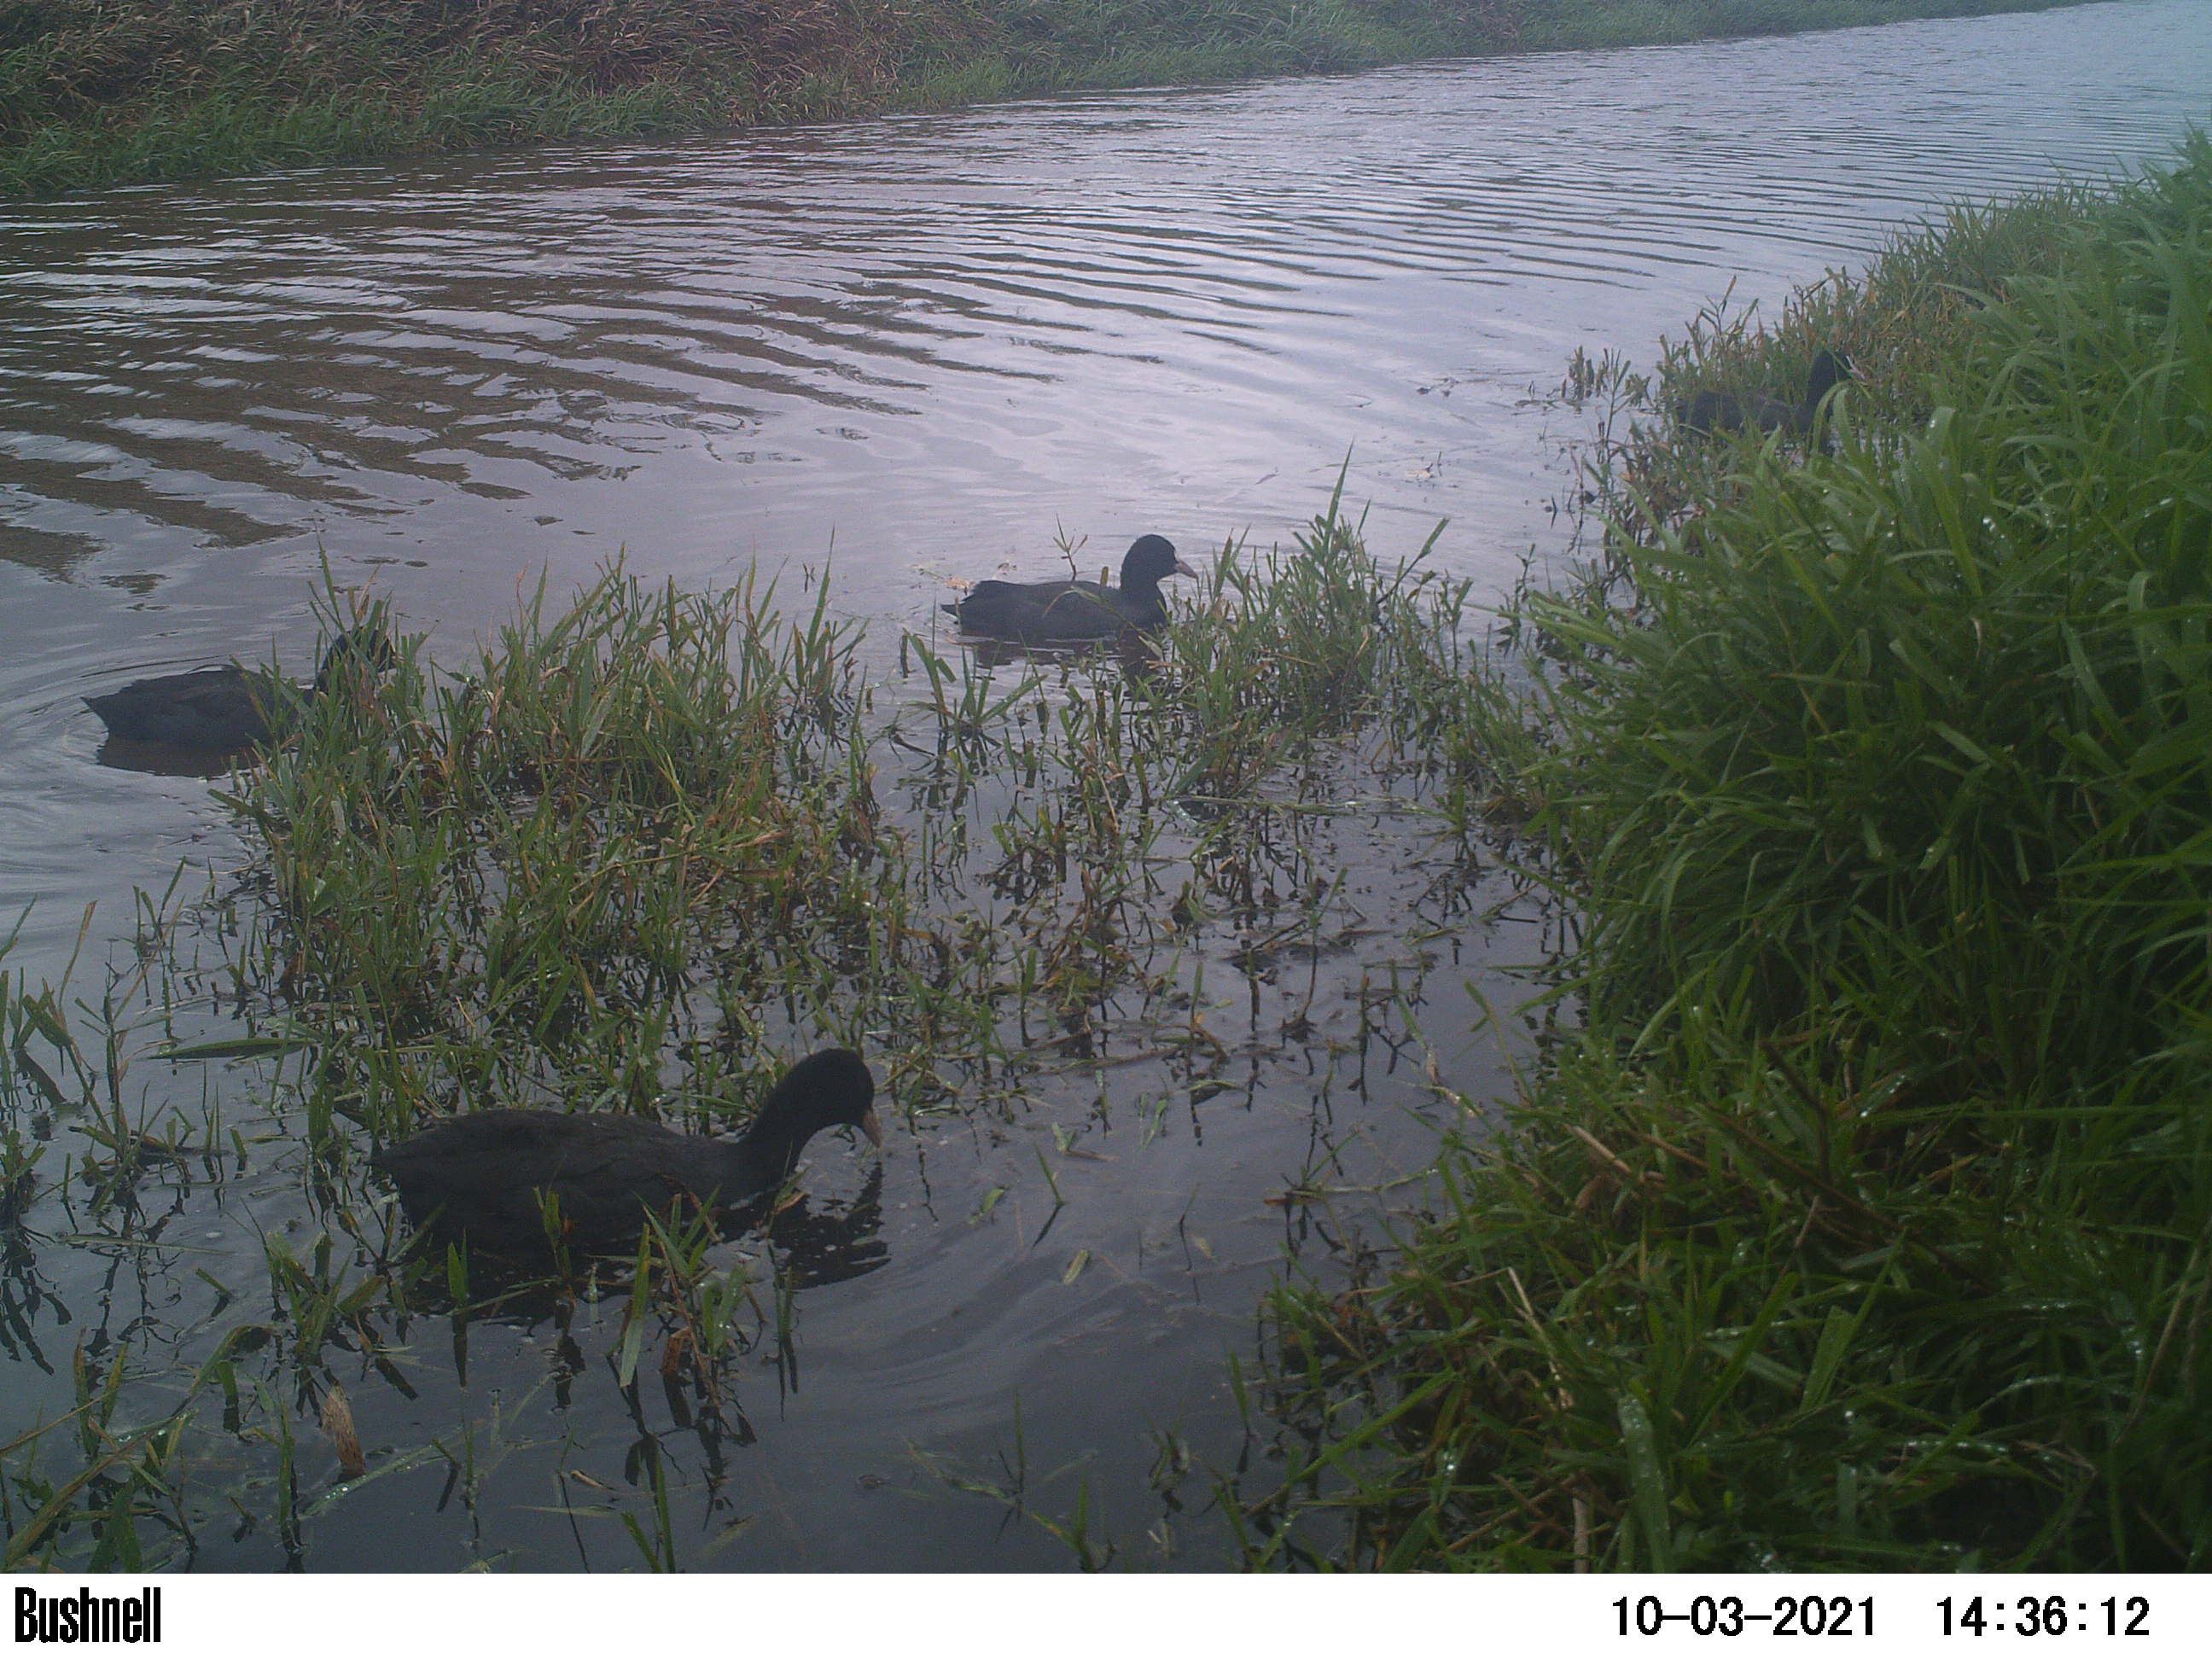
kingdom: Animalia
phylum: Chordata
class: Aves
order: Gruiformes
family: Rallidae
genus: Fulica
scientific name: Fulica atra
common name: Eurasian coot
